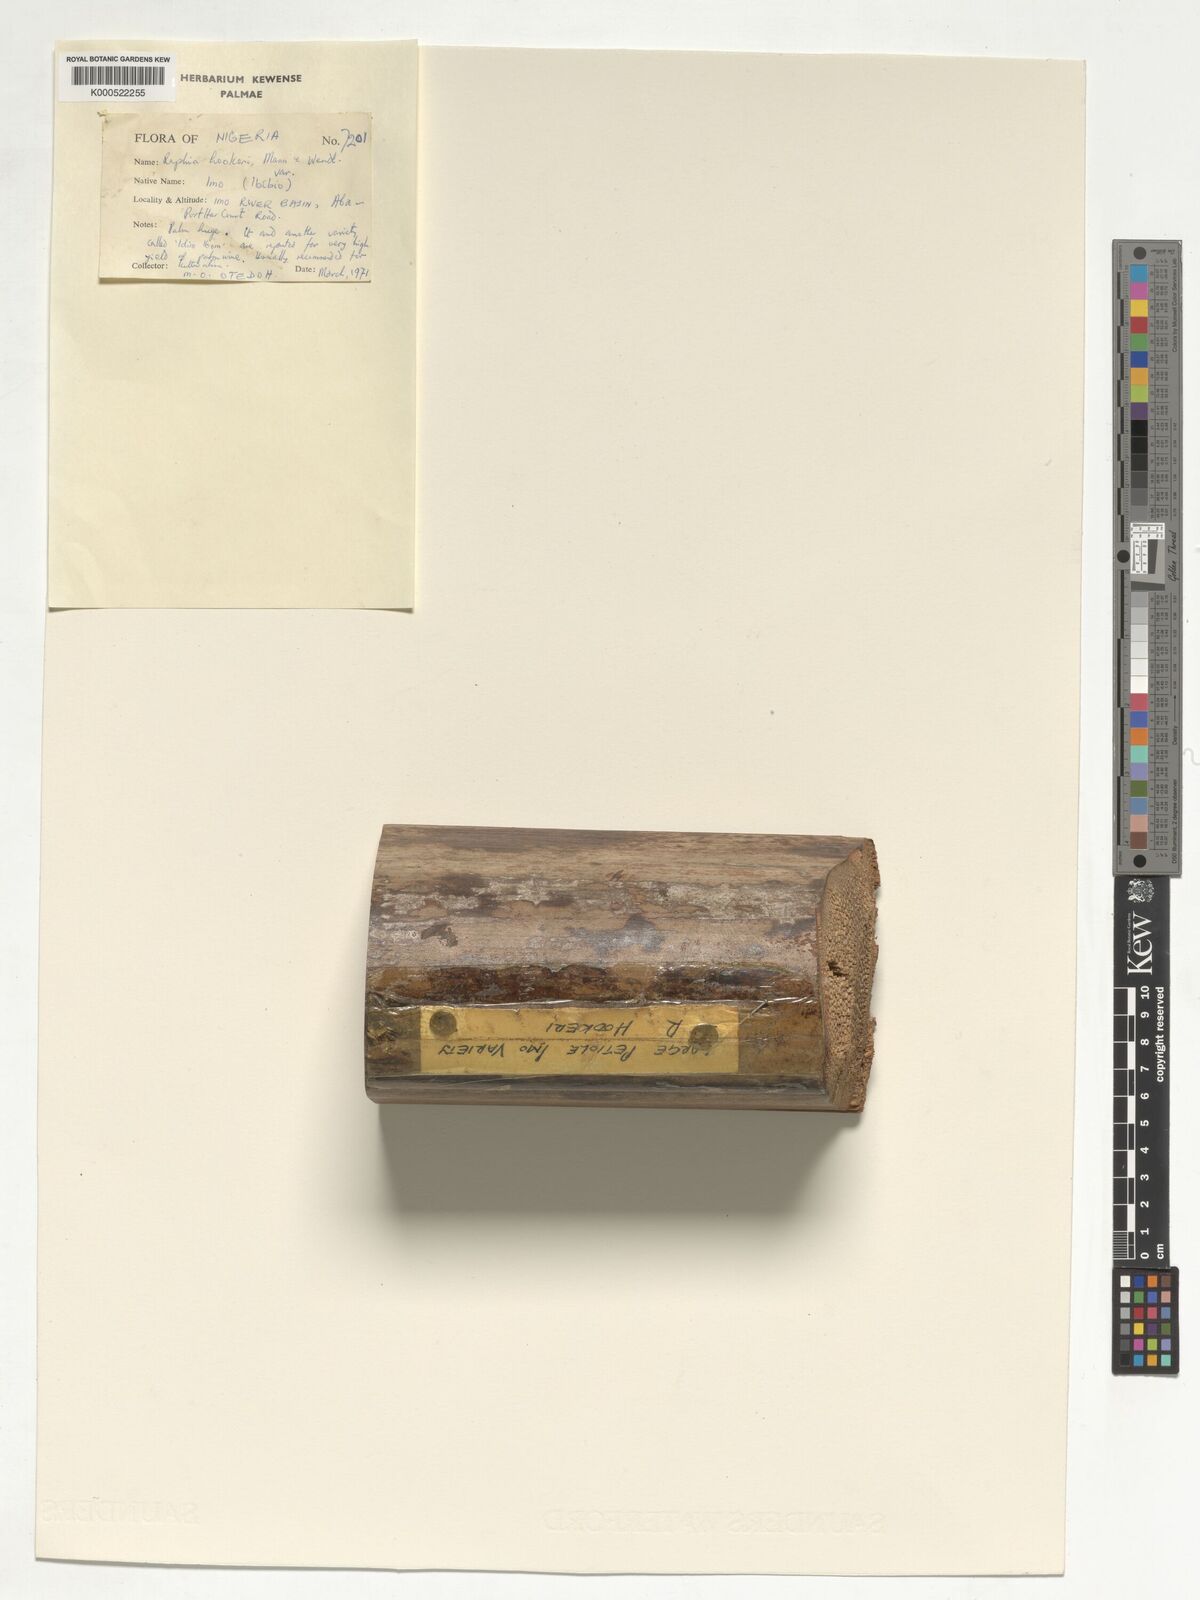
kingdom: Plantae
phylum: Tracheophyta
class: Liliopsida
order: Arecales
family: Arecaceae
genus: Raphia
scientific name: Raphia hookeri
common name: Wine palm
